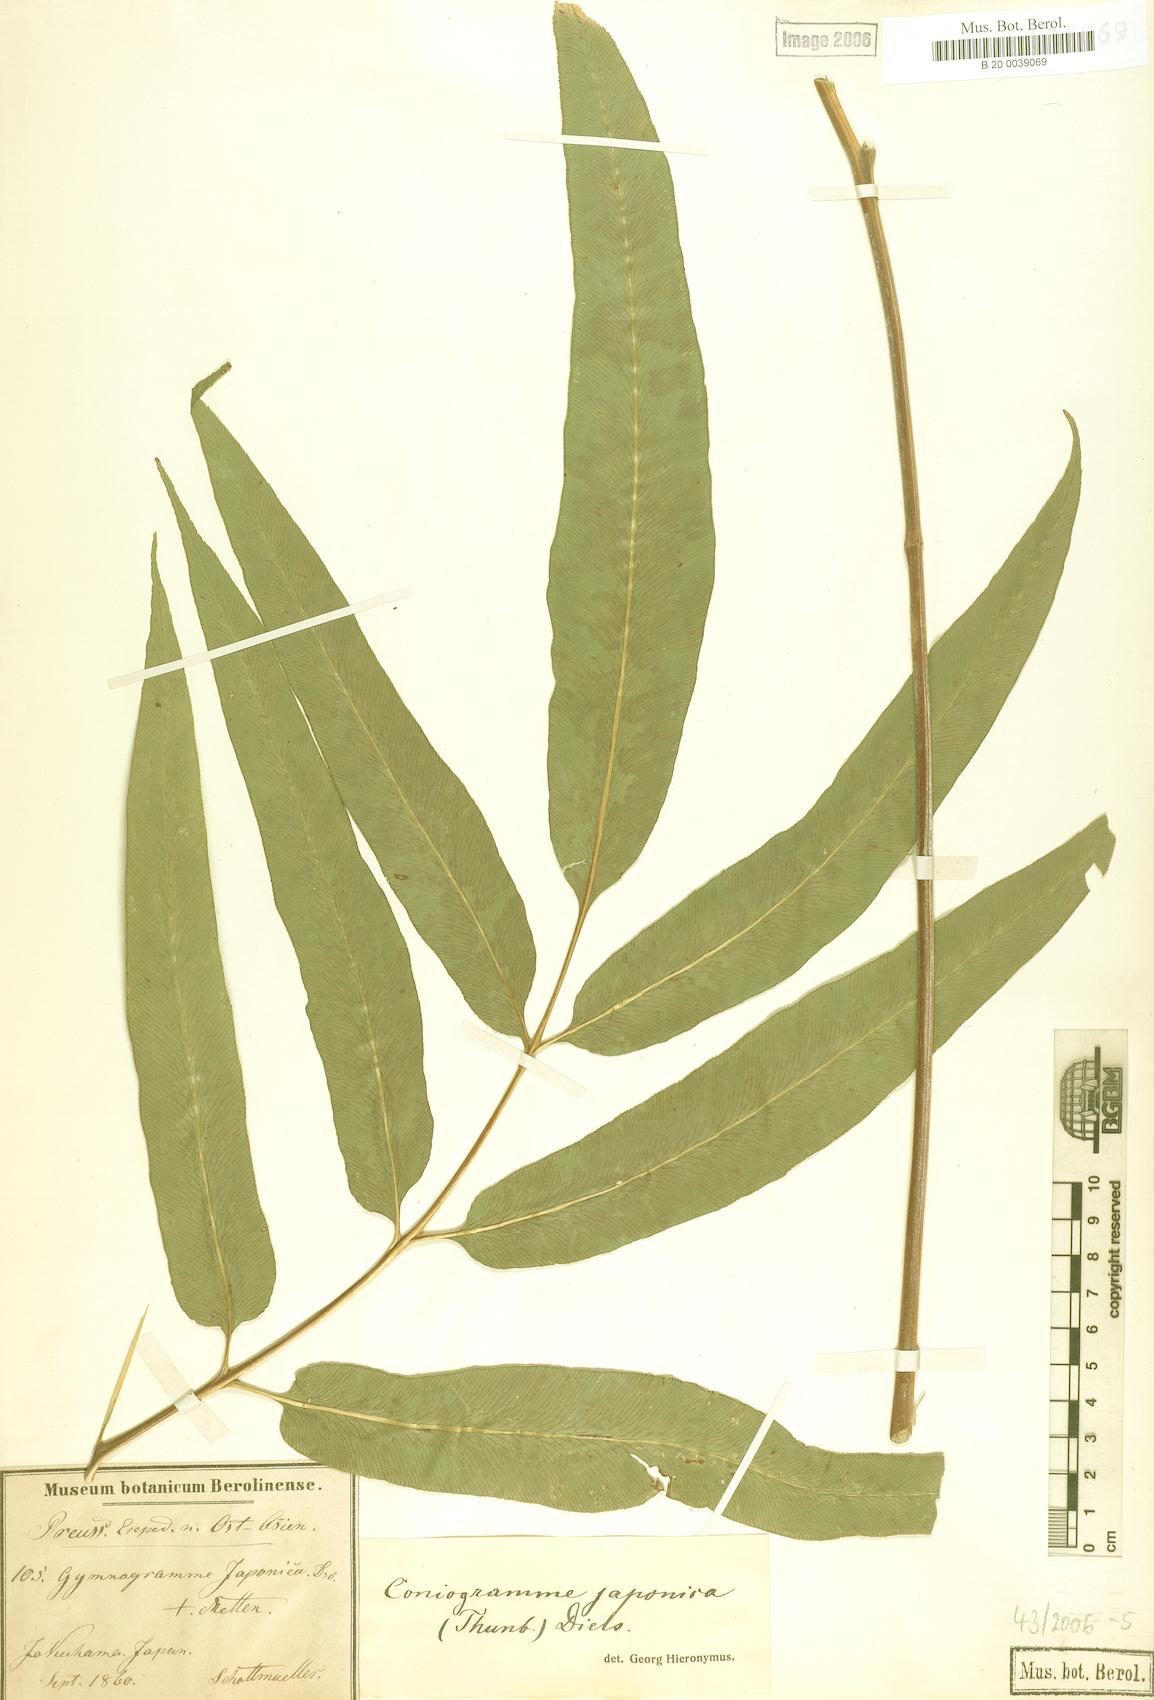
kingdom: Plantae
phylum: Tracheophyta
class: Polypodiopsida
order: Polypodiales
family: Pteridaceae
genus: Coniogramme
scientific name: Coniogramme japonica
